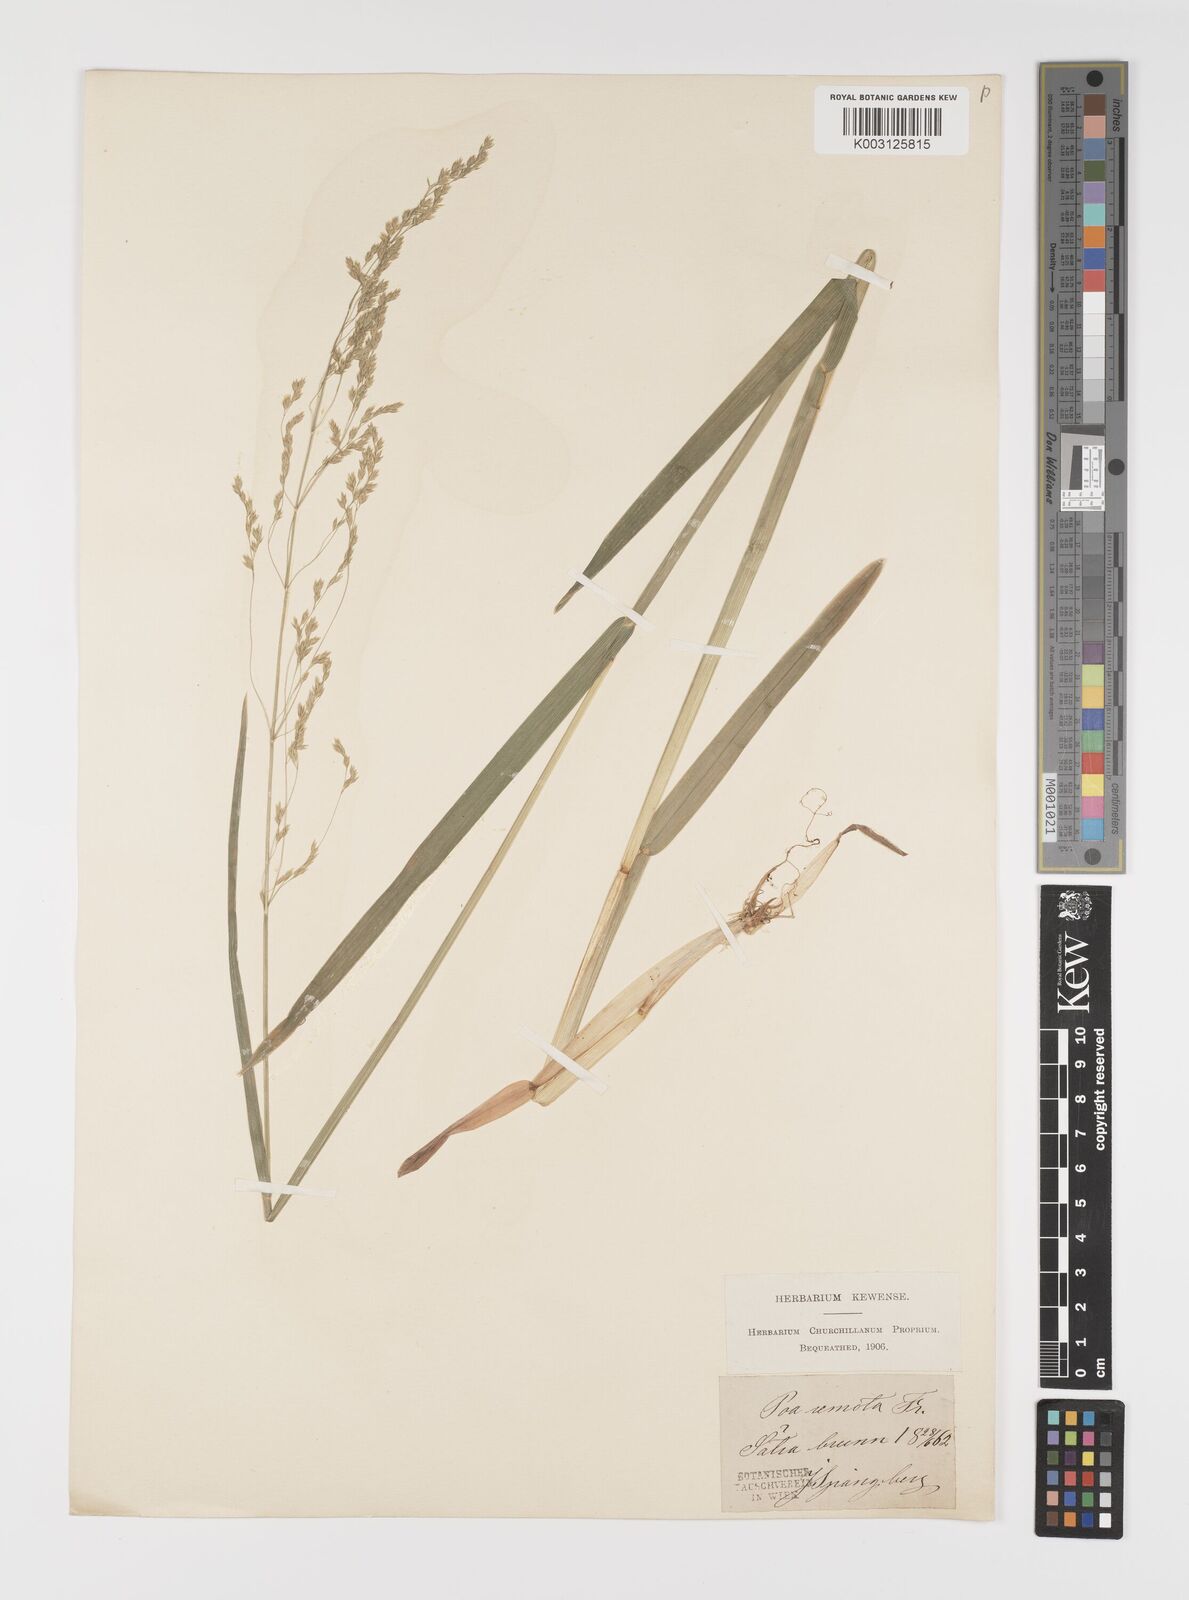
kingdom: Plantae
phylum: Tracheophyta
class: Liliopsida
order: Poales
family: Poaceae
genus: Poa
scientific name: Poa remota
